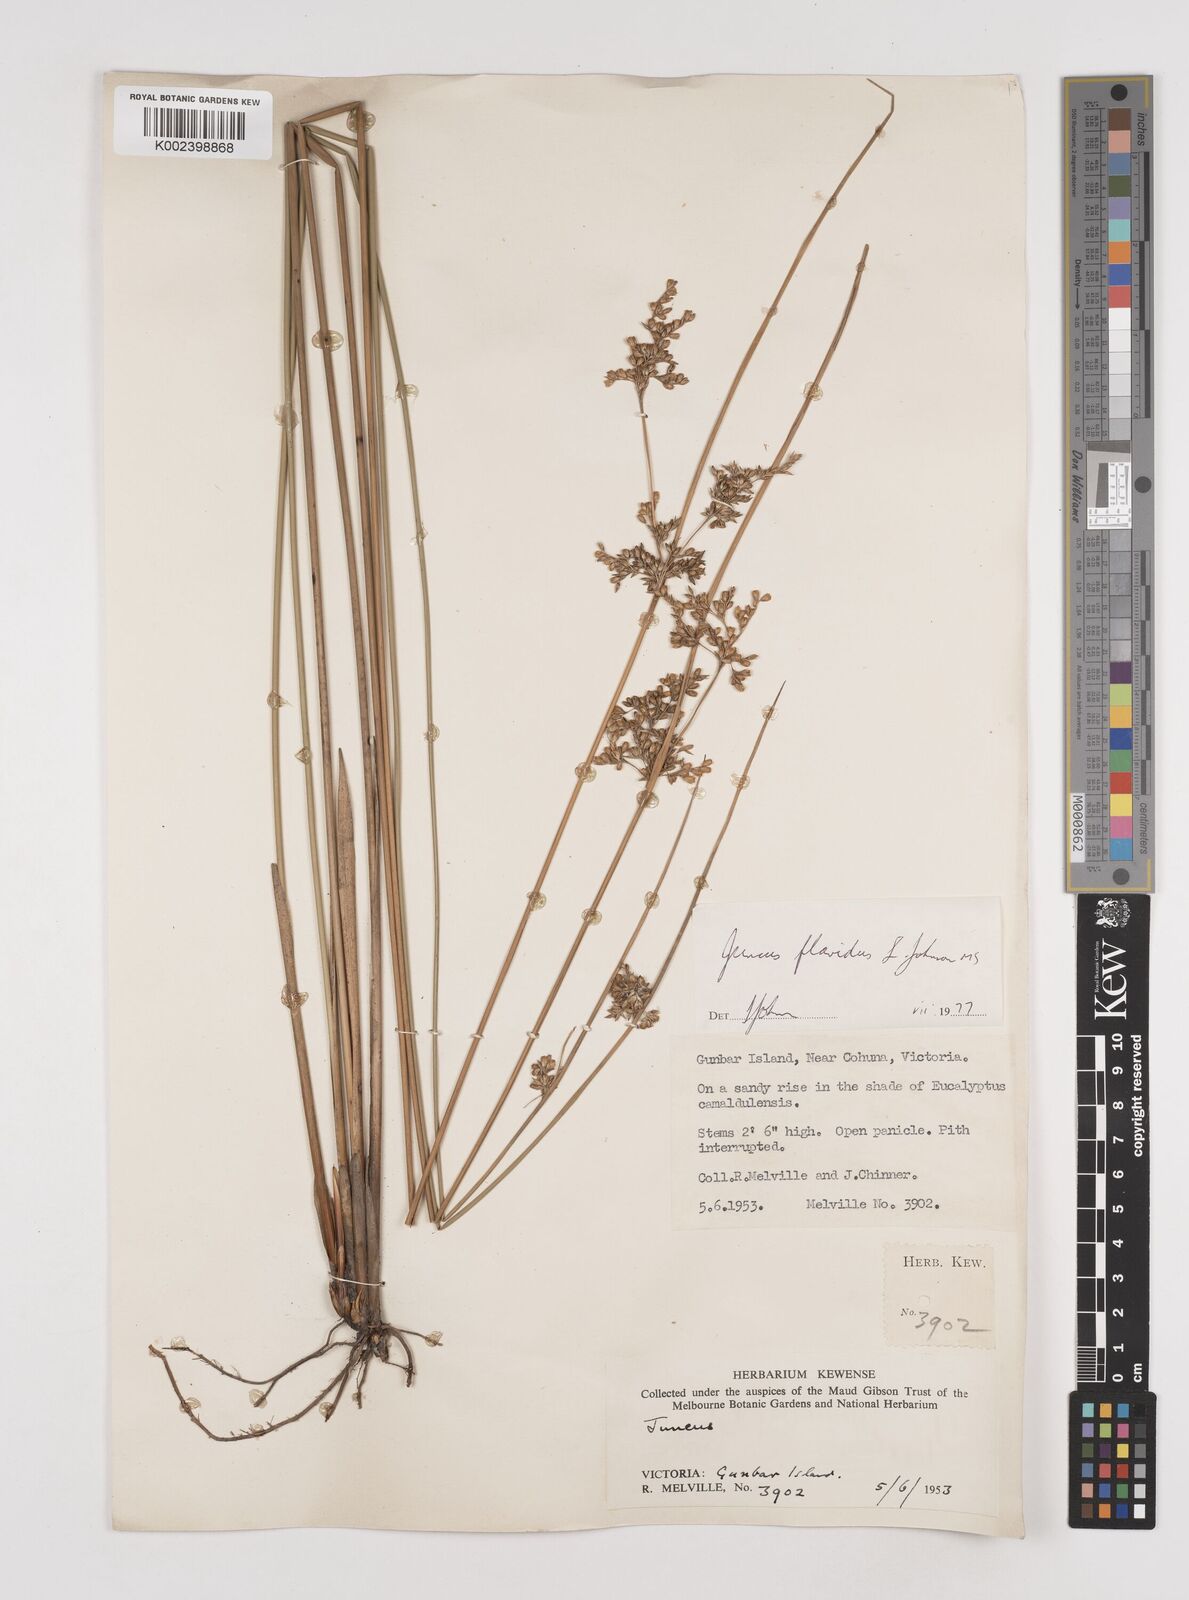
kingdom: Plantae
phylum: Tracheophyta
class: Liliopsida
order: Poales
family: Juncaceae
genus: Juncus
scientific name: Juncus flavidus
